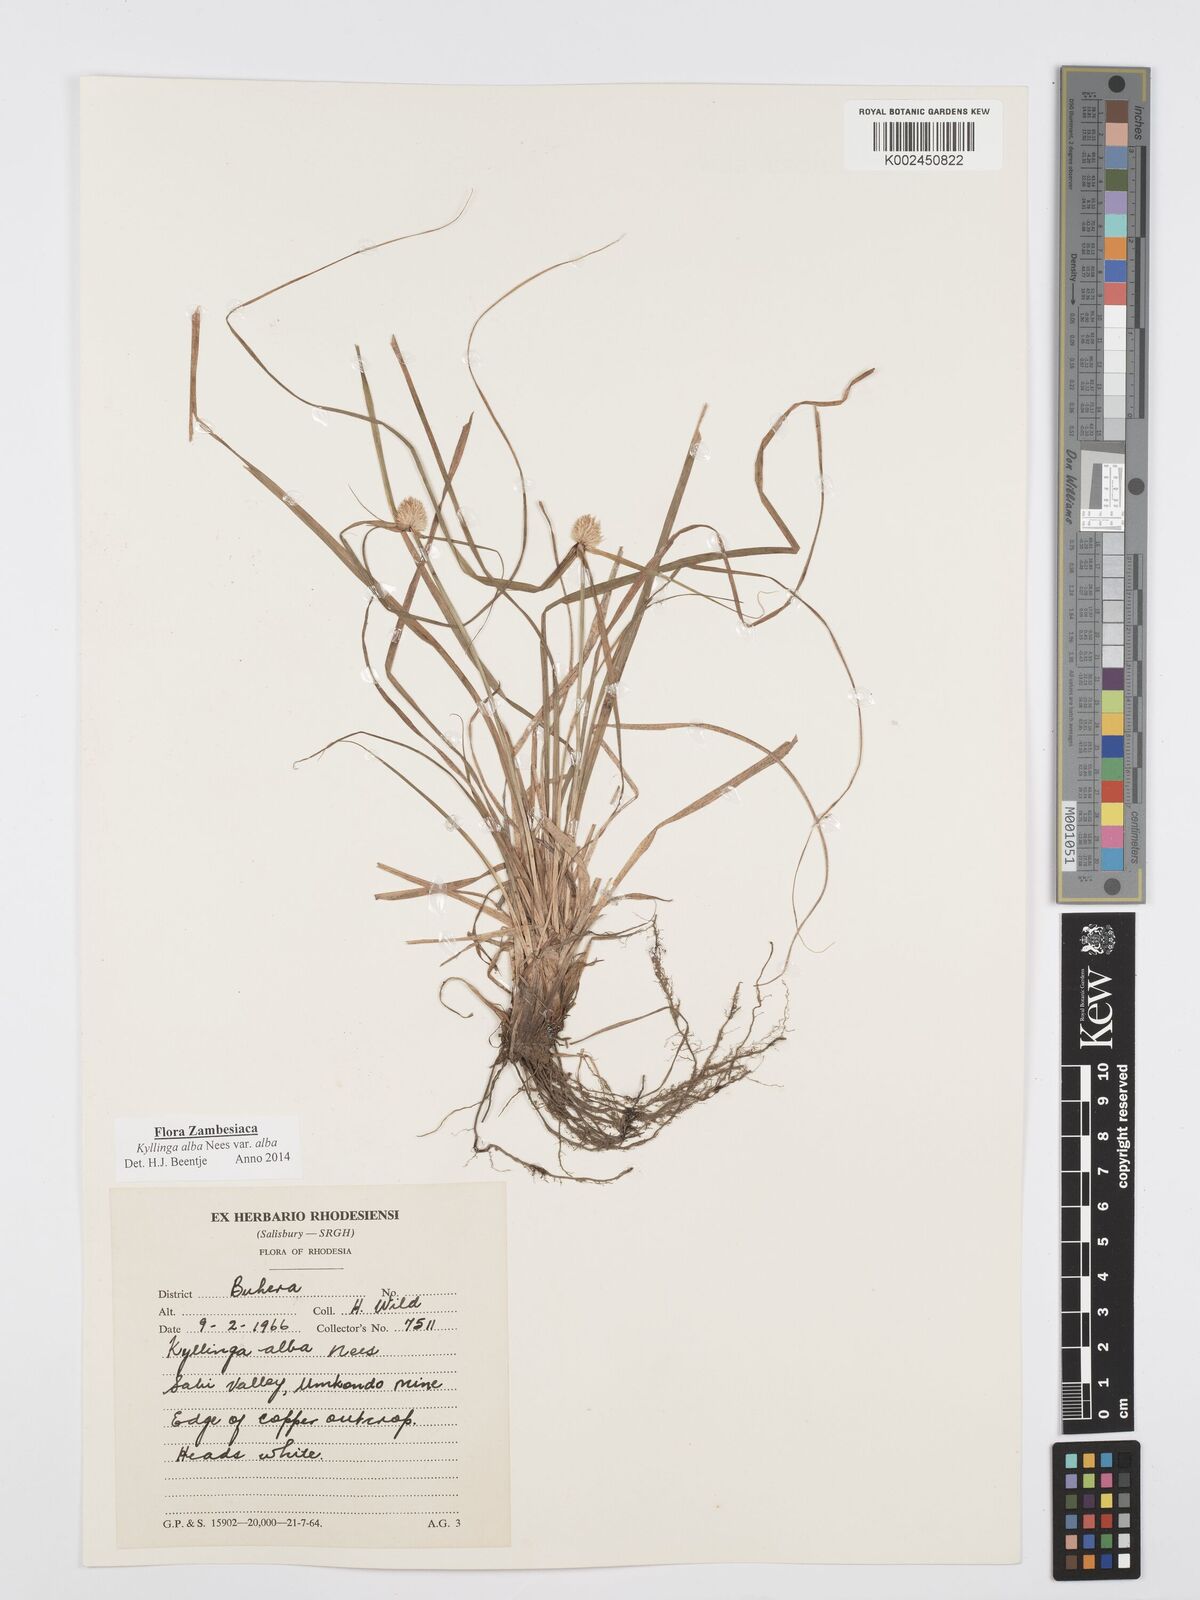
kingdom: Plantae
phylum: Tracheophyta
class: Liliopsida
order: Poales
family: Cyperaceae
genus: Cyperus
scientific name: Cyperus
